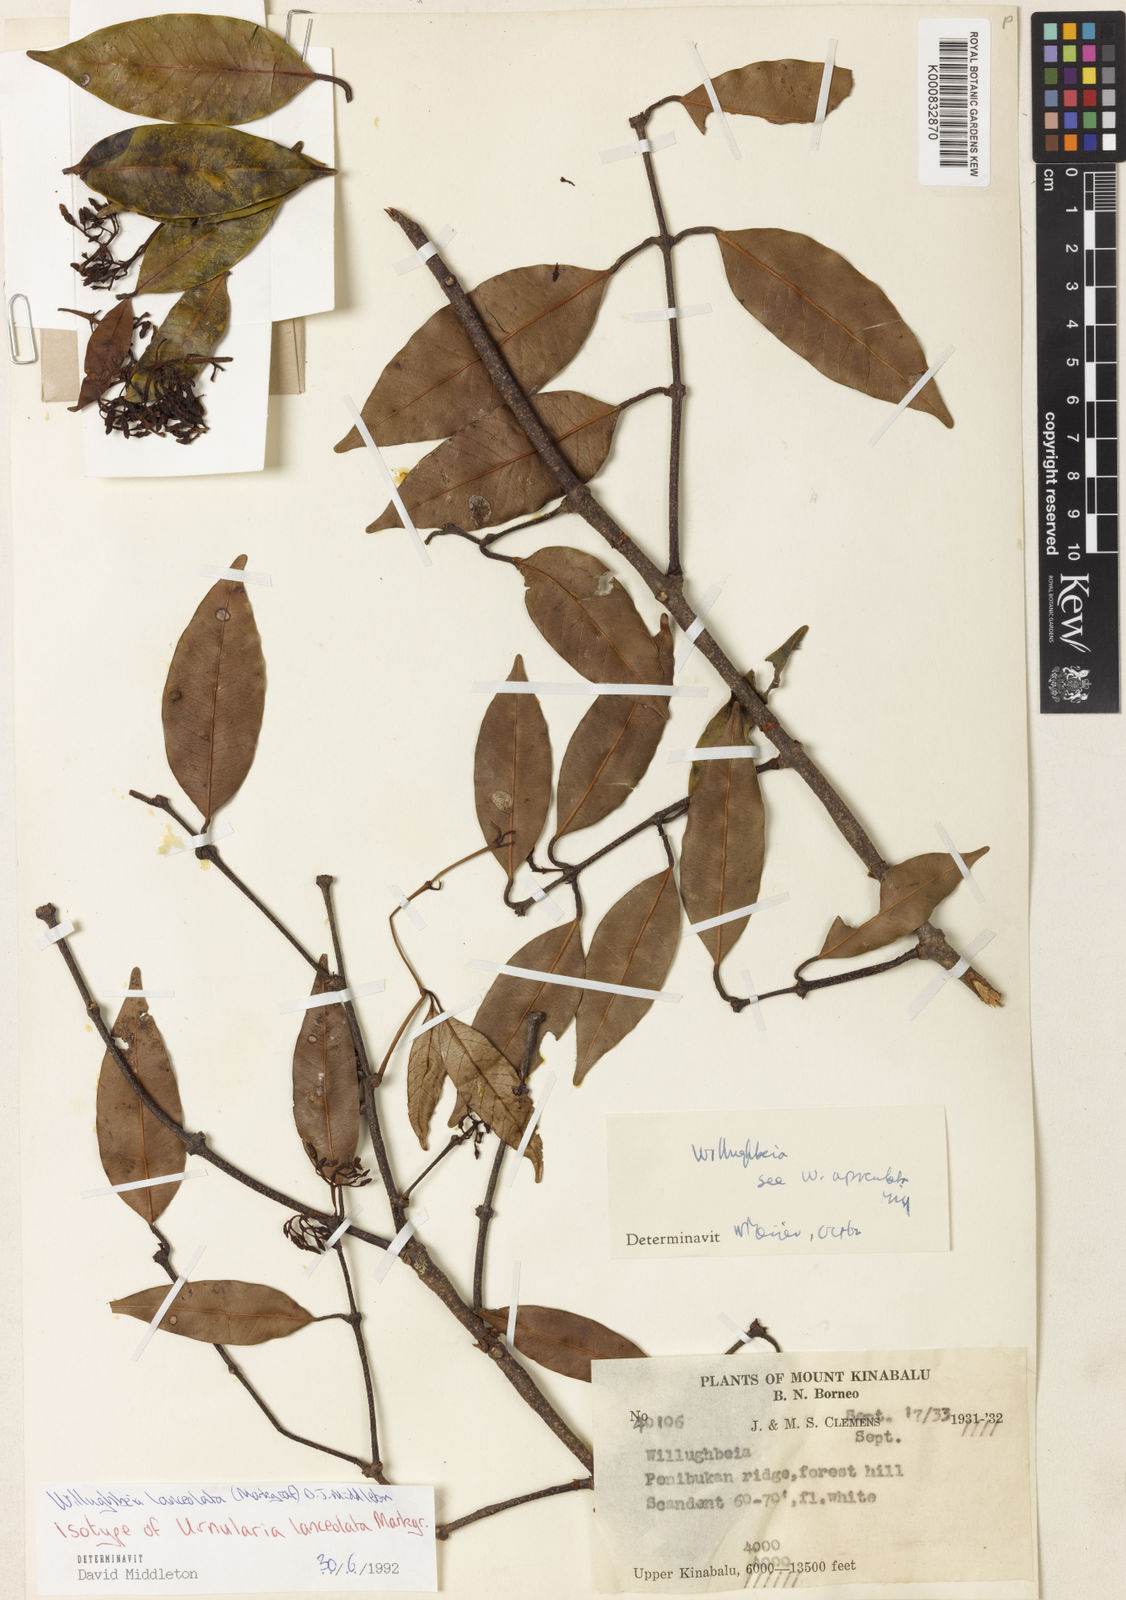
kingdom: Plantae
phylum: Tracheophyta
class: Magnoliopsida
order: Gentianales
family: Apocynaceae
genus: Willughbeia
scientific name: Willughbeia lanceolata
